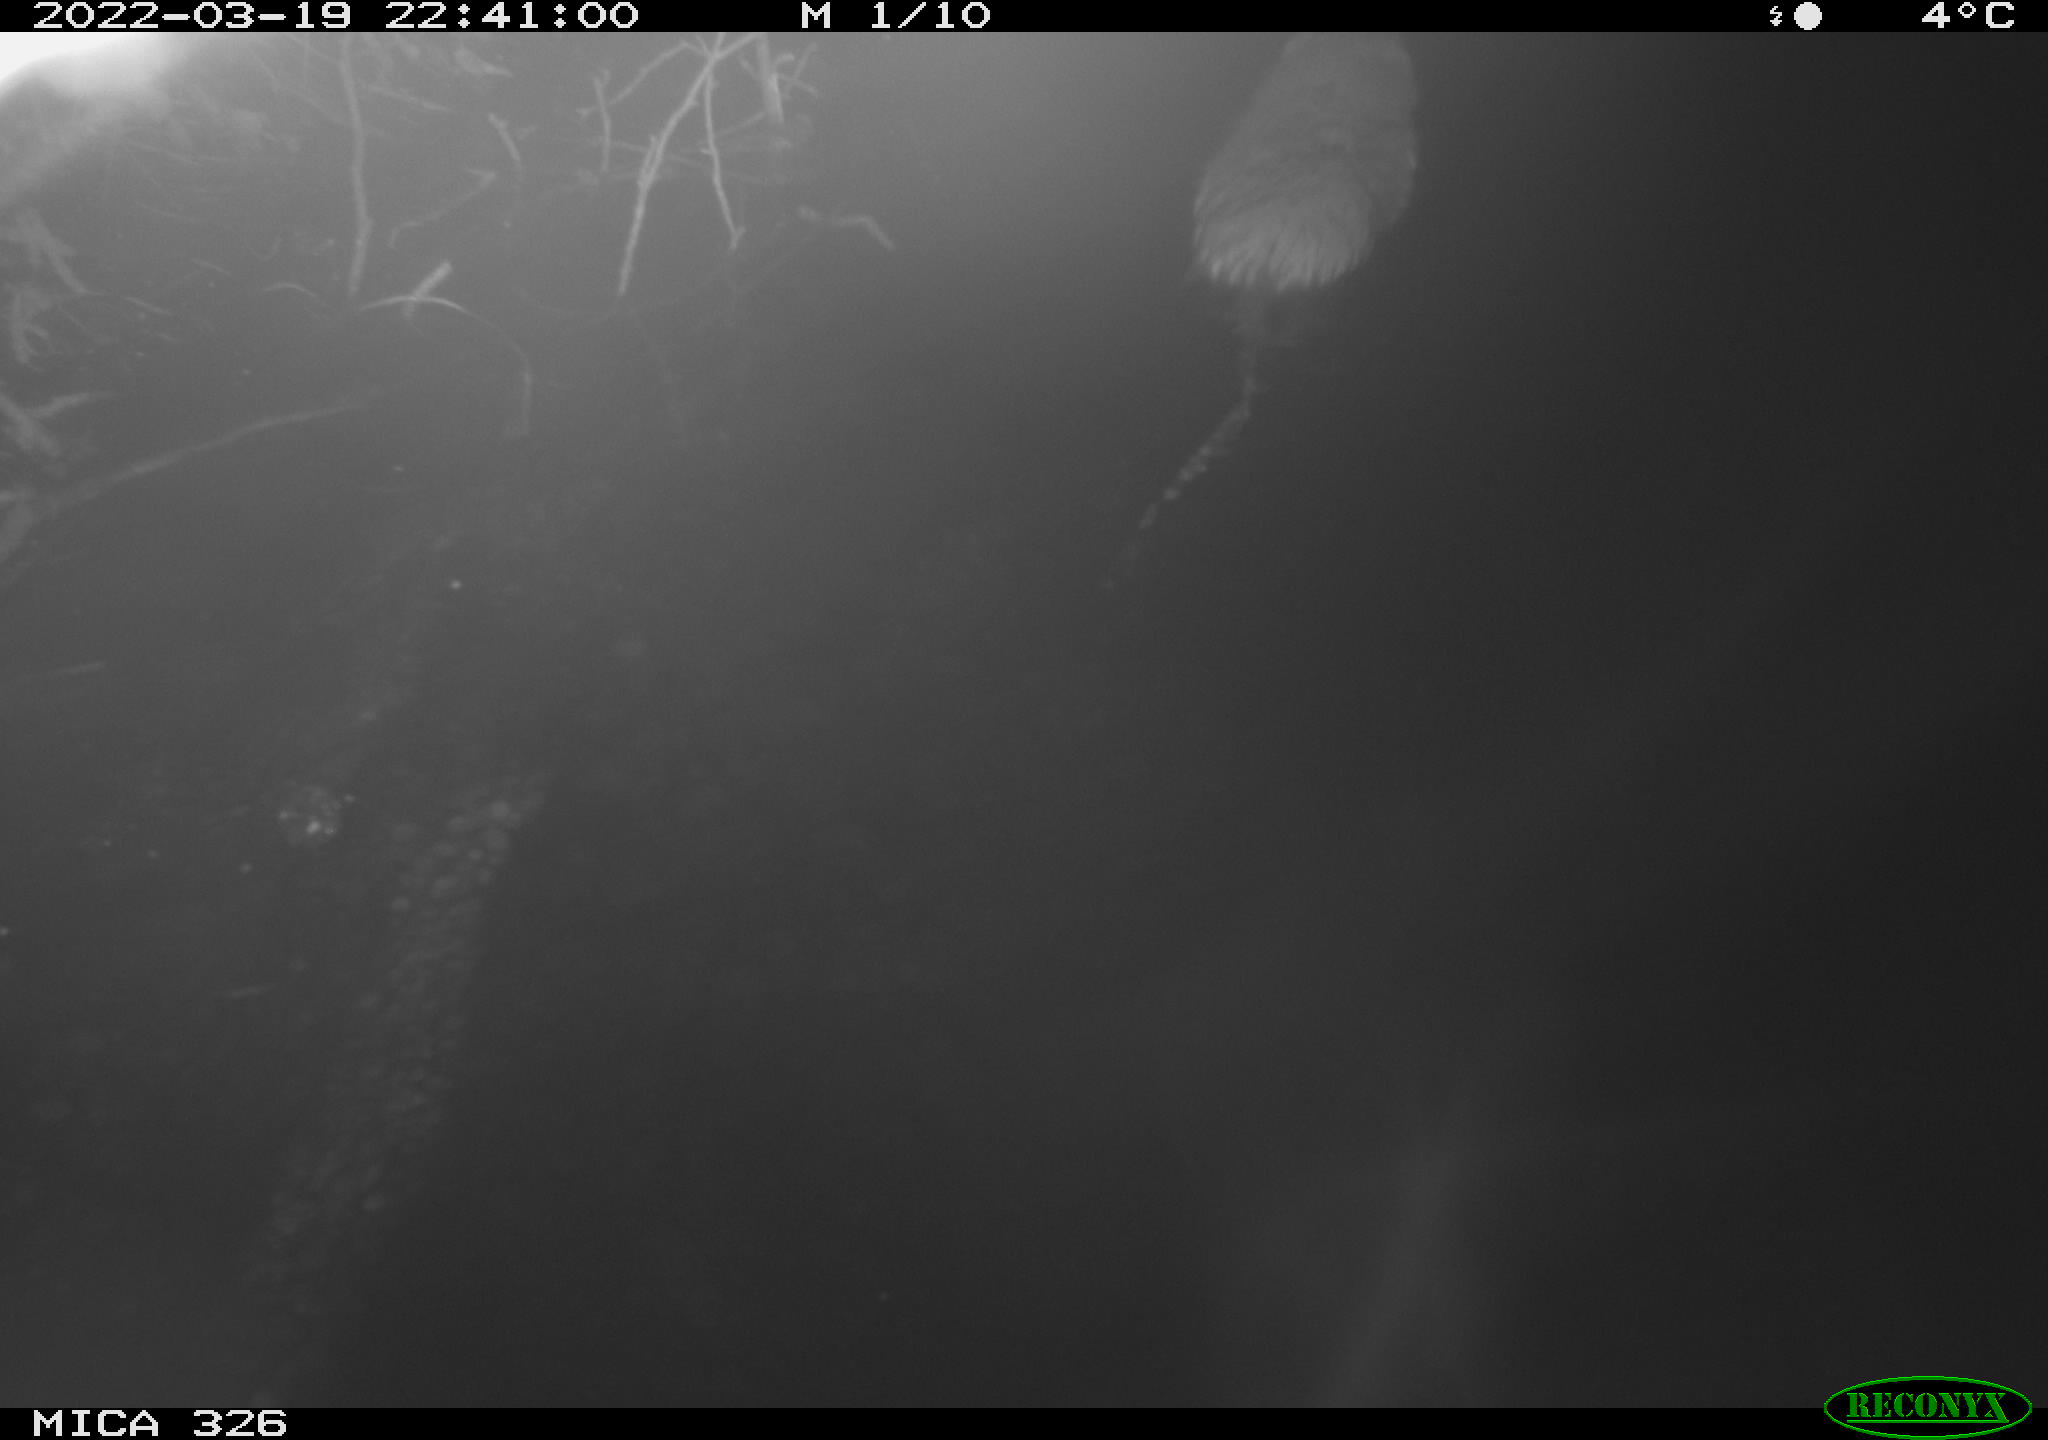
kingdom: Animalia
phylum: Chordata
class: Mammalia
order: Rodentia
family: Cricetidae
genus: Ondatra
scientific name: Ondatra zibethicus
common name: Muskrat
